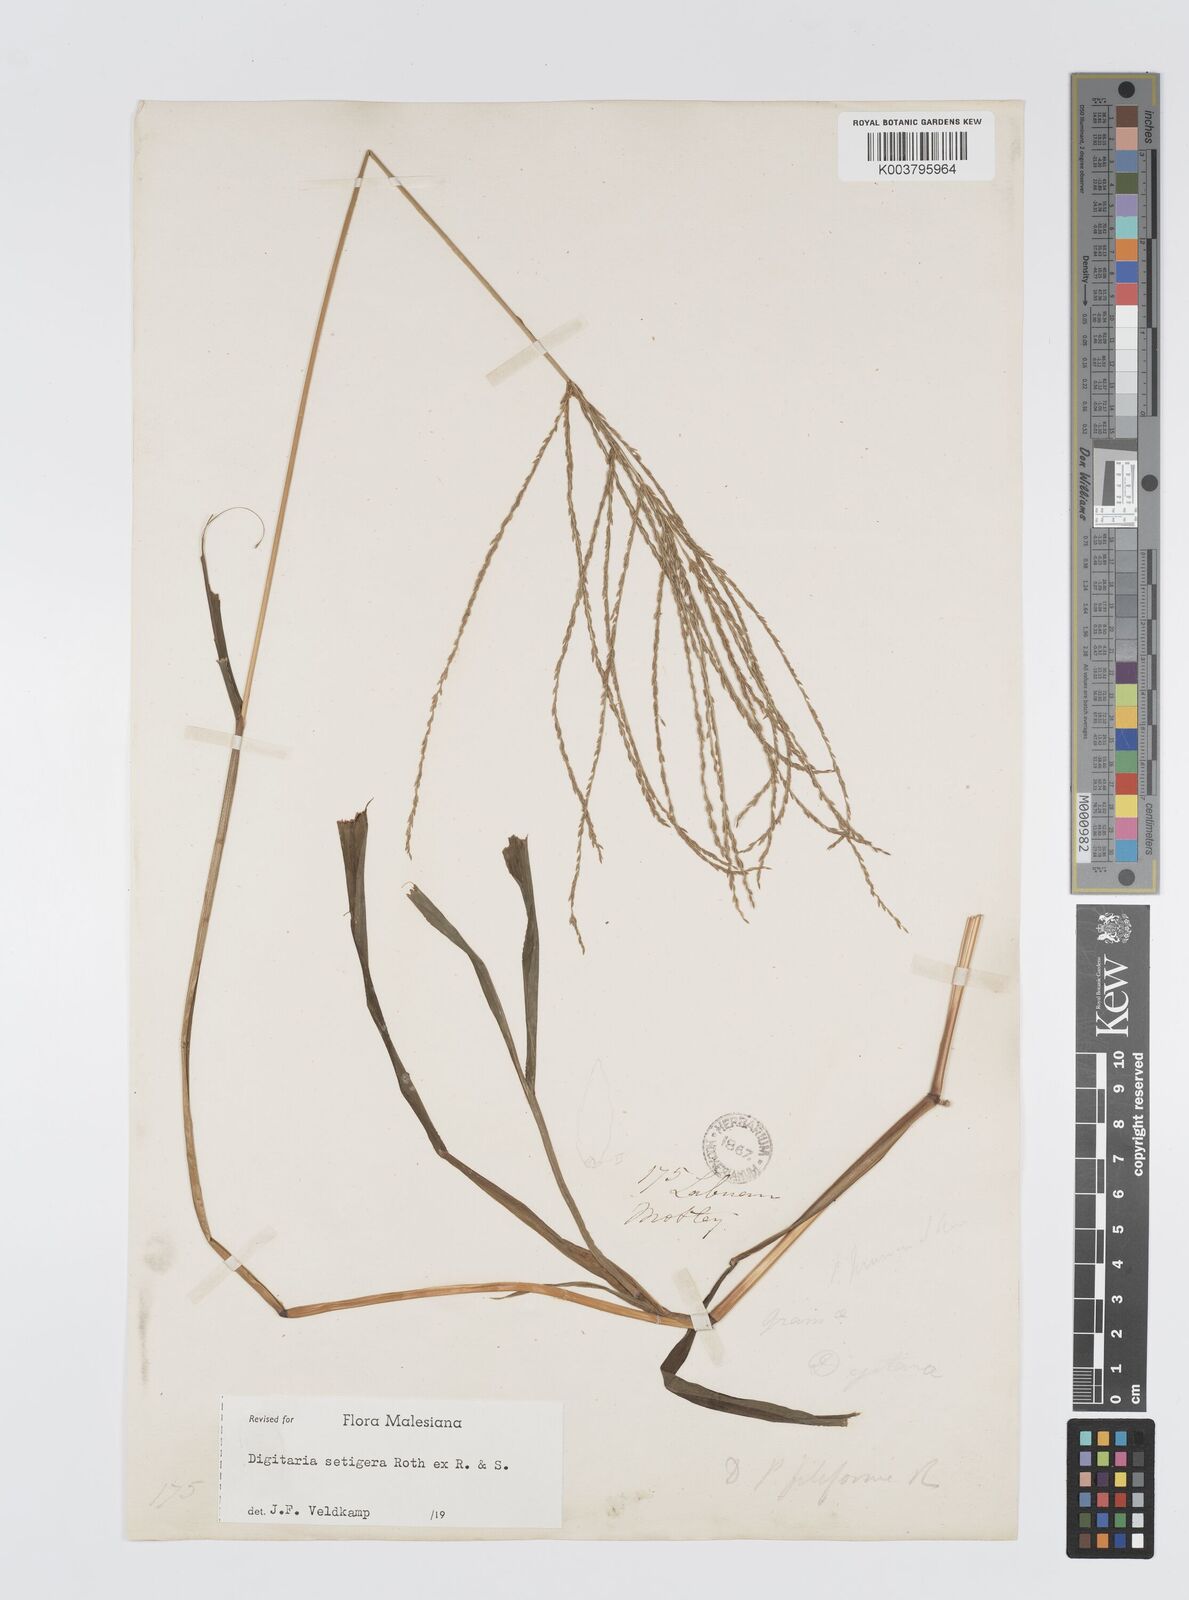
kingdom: Plantae
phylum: Tracheophyta
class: Liliopsida
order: Poales
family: Poaceae
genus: Digitaria
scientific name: Digitaria setigera
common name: East indian crabgrass
